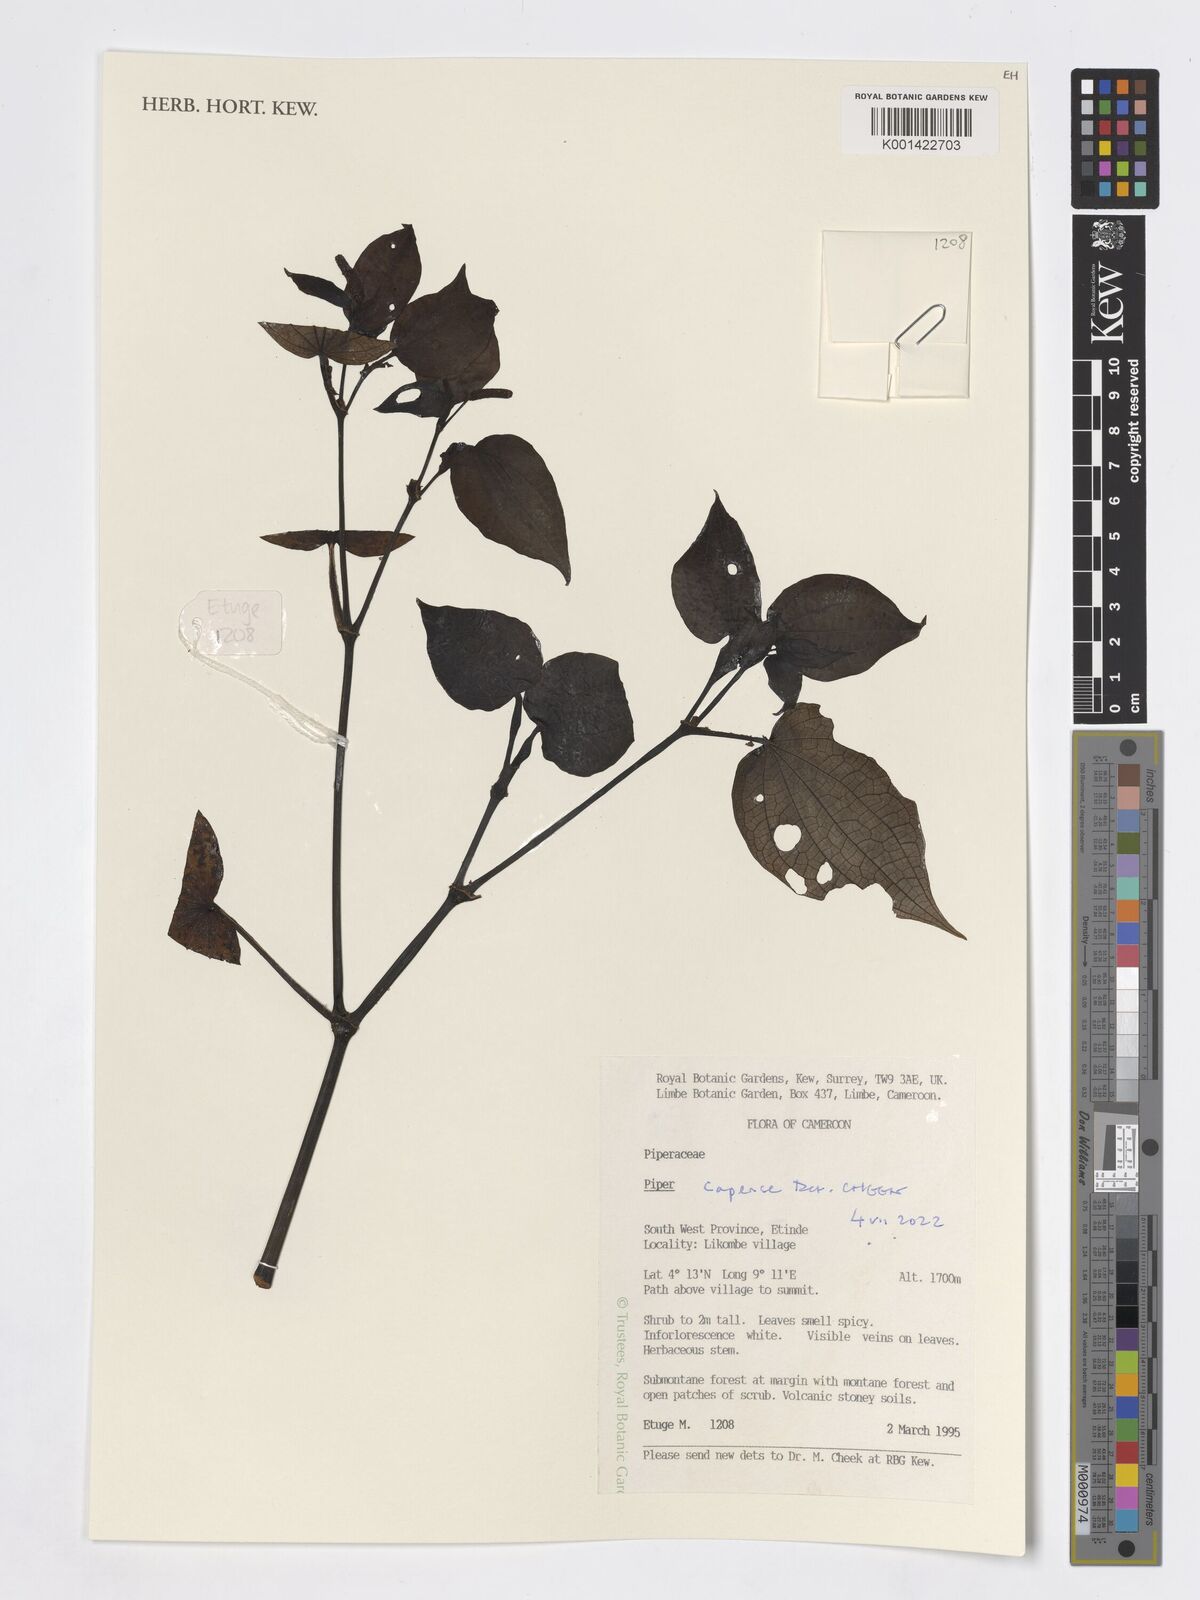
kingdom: Plantae
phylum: Tracheophyta
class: Magnoliopsida
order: Piperales
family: Piperaceae
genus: Piper
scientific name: Piper capense
